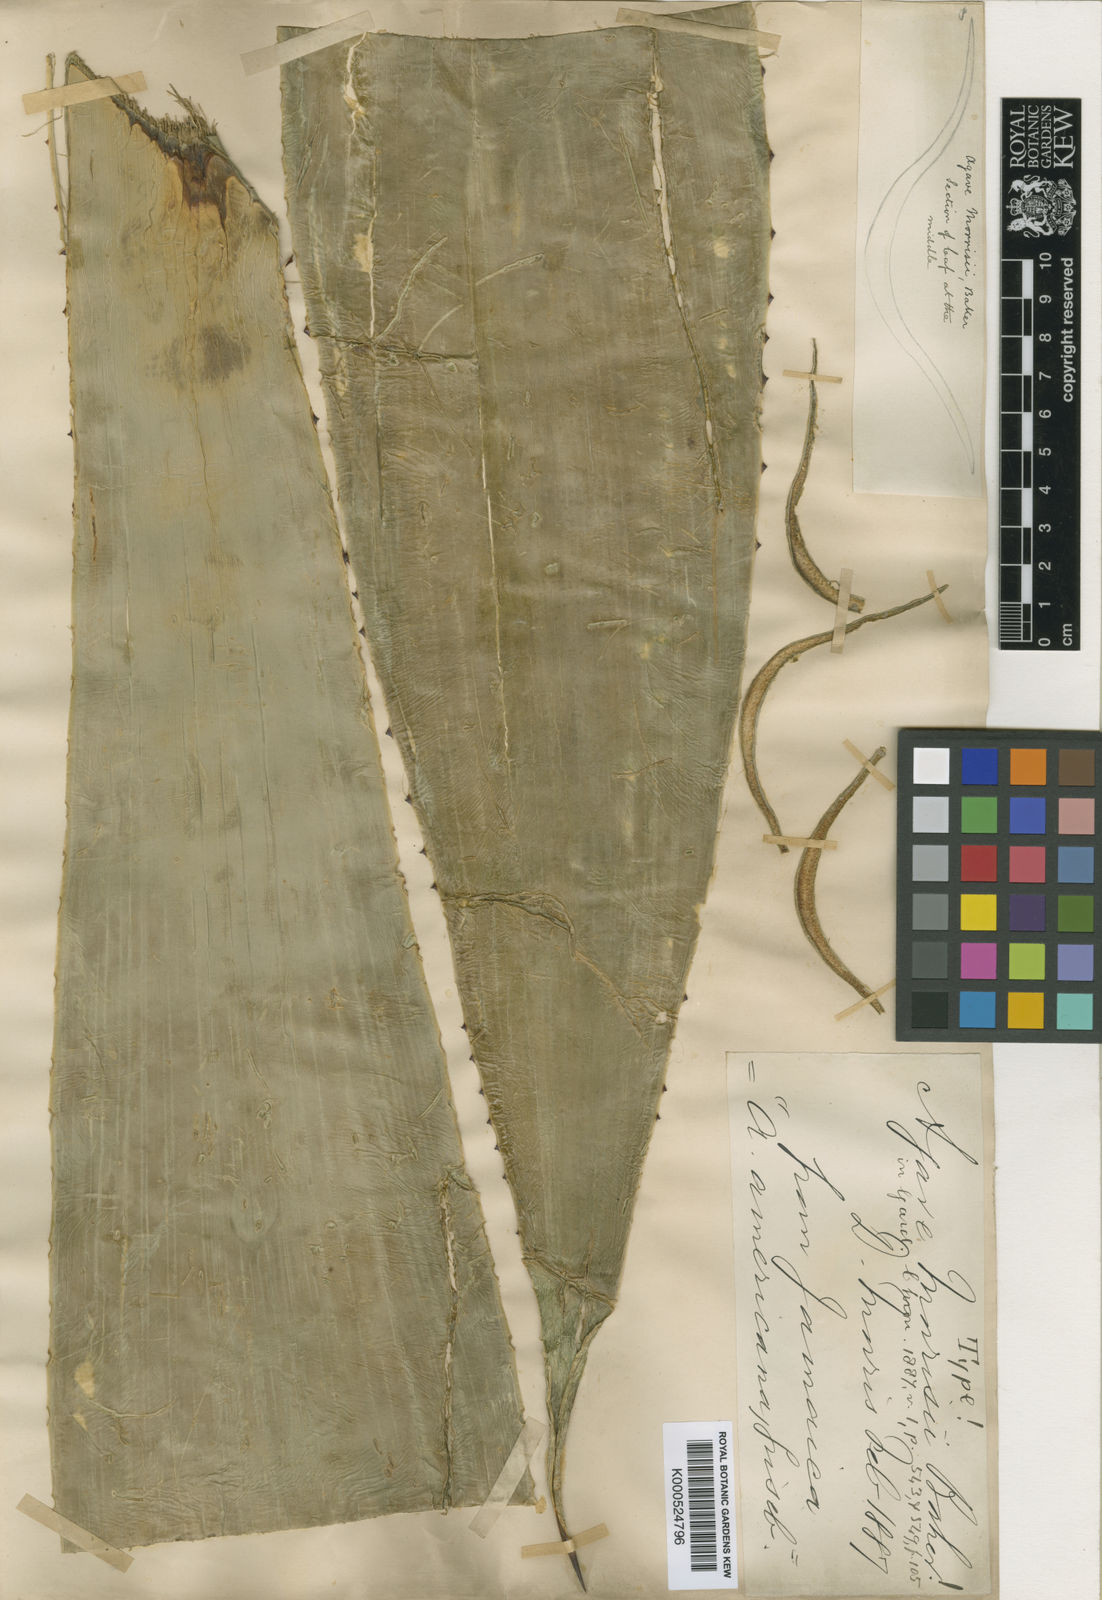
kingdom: Plantae
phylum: Tracheophyta
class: Liliopsida
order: Asparagales
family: Asparagaceae
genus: Agave
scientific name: Agave sobolifera
